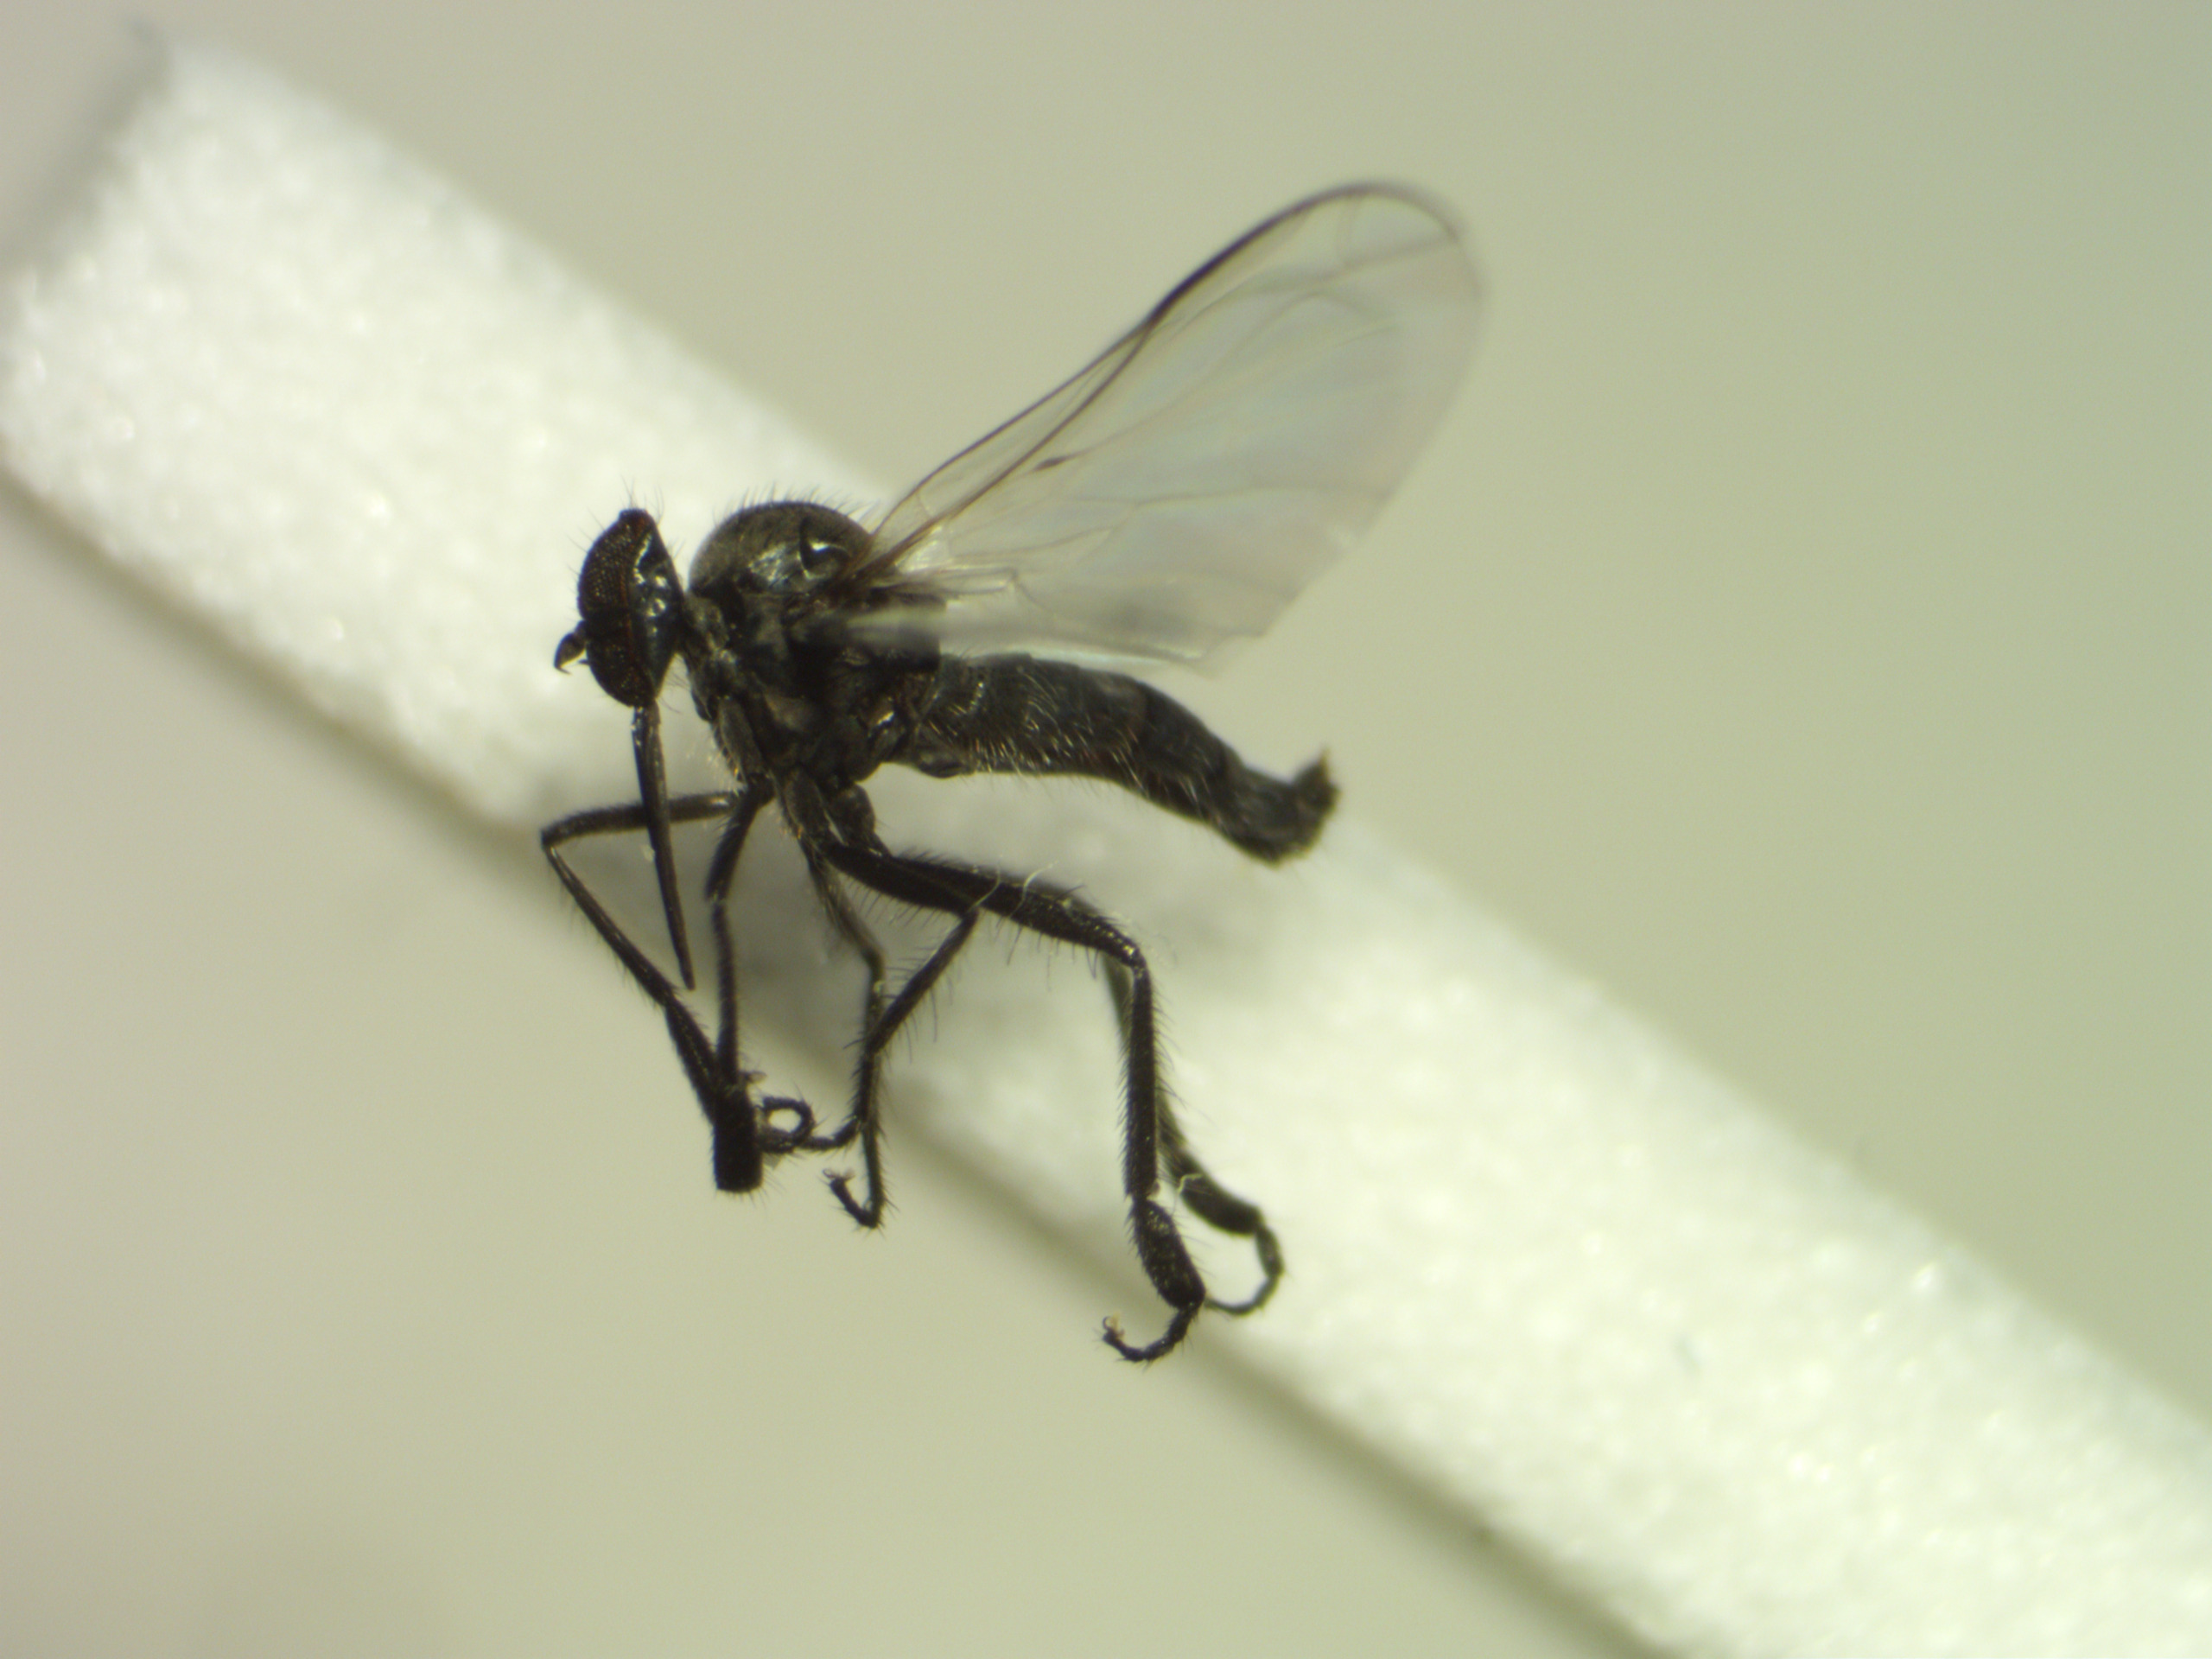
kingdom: Animalia
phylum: Arthropoda
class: Insecta
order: Diptera
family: Empididae
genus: Empis
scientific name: Empis chioptera
